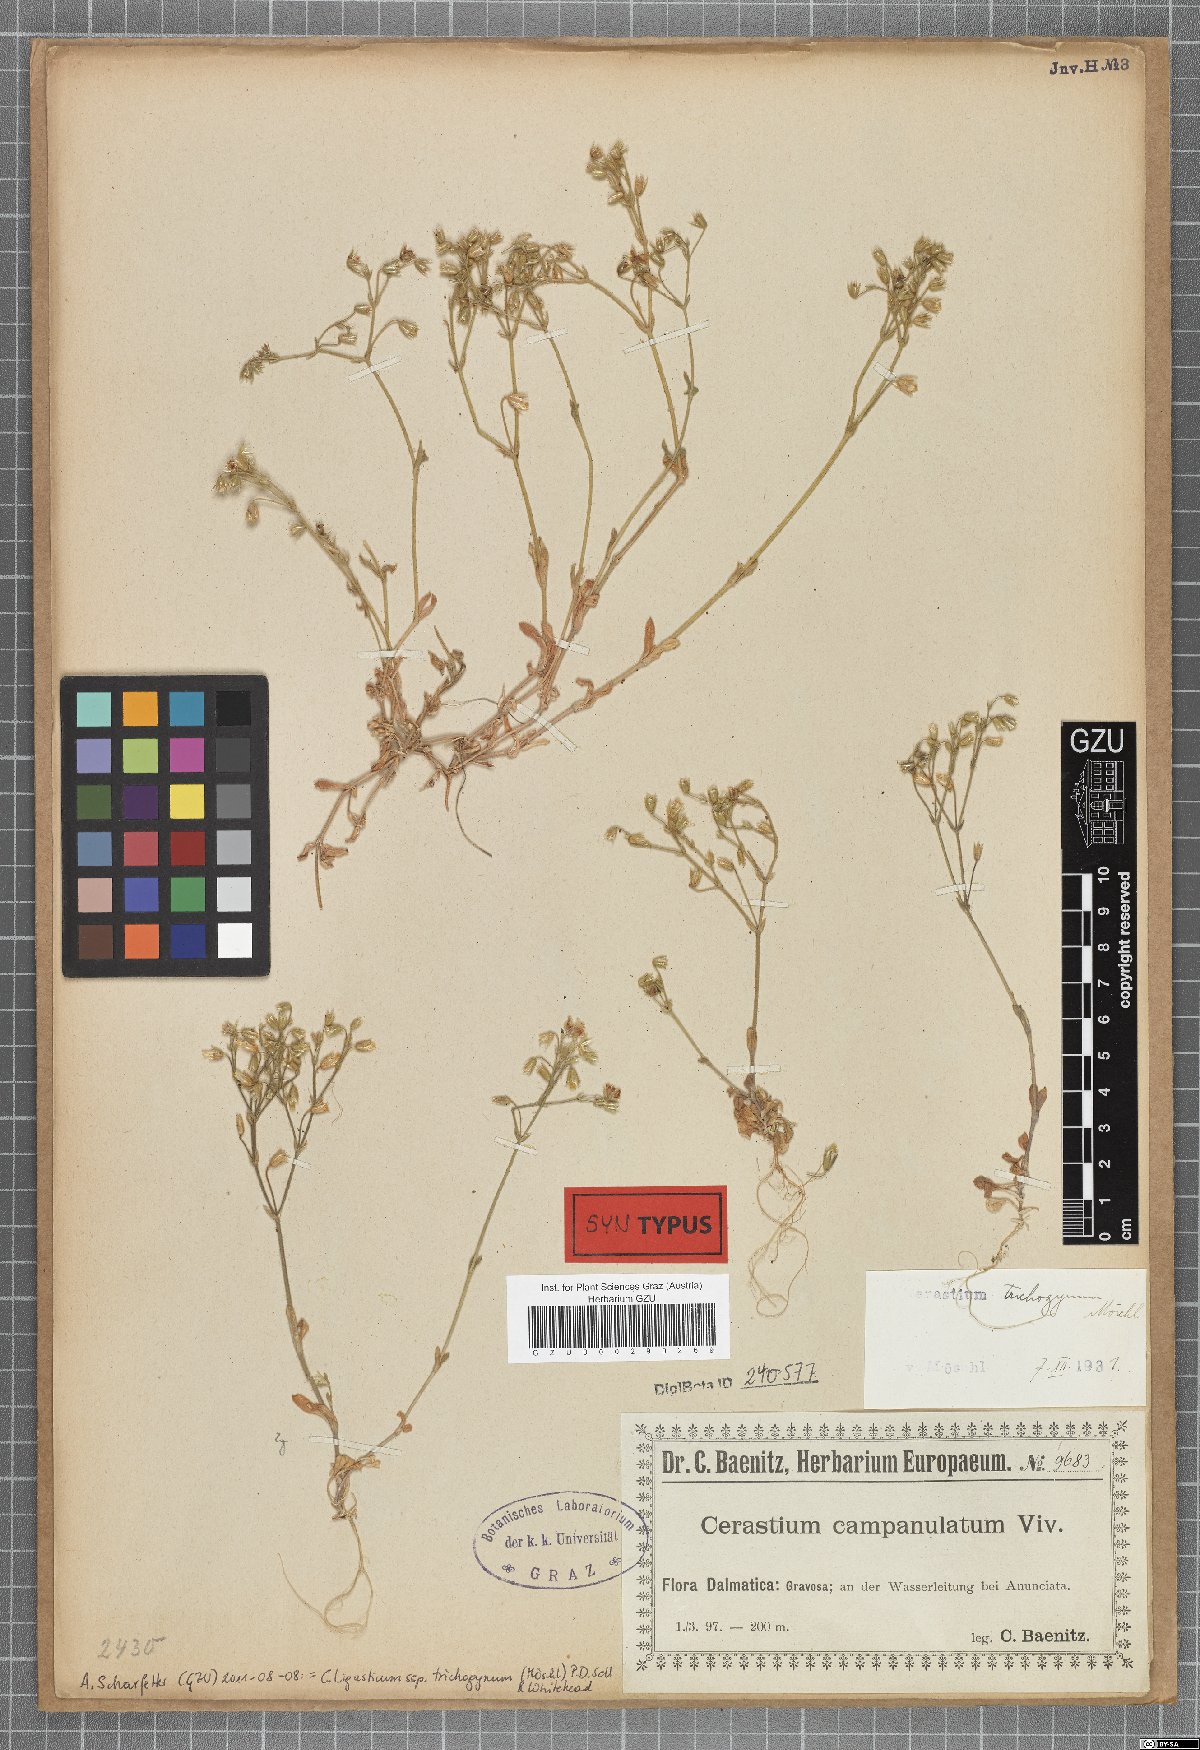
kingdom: Plantae
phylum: Tracheophyta
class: Magnoliopsida
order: Caryophyllales
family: Caryophyllaceae
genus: Cerastium
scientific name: Cerastium ligusticum
